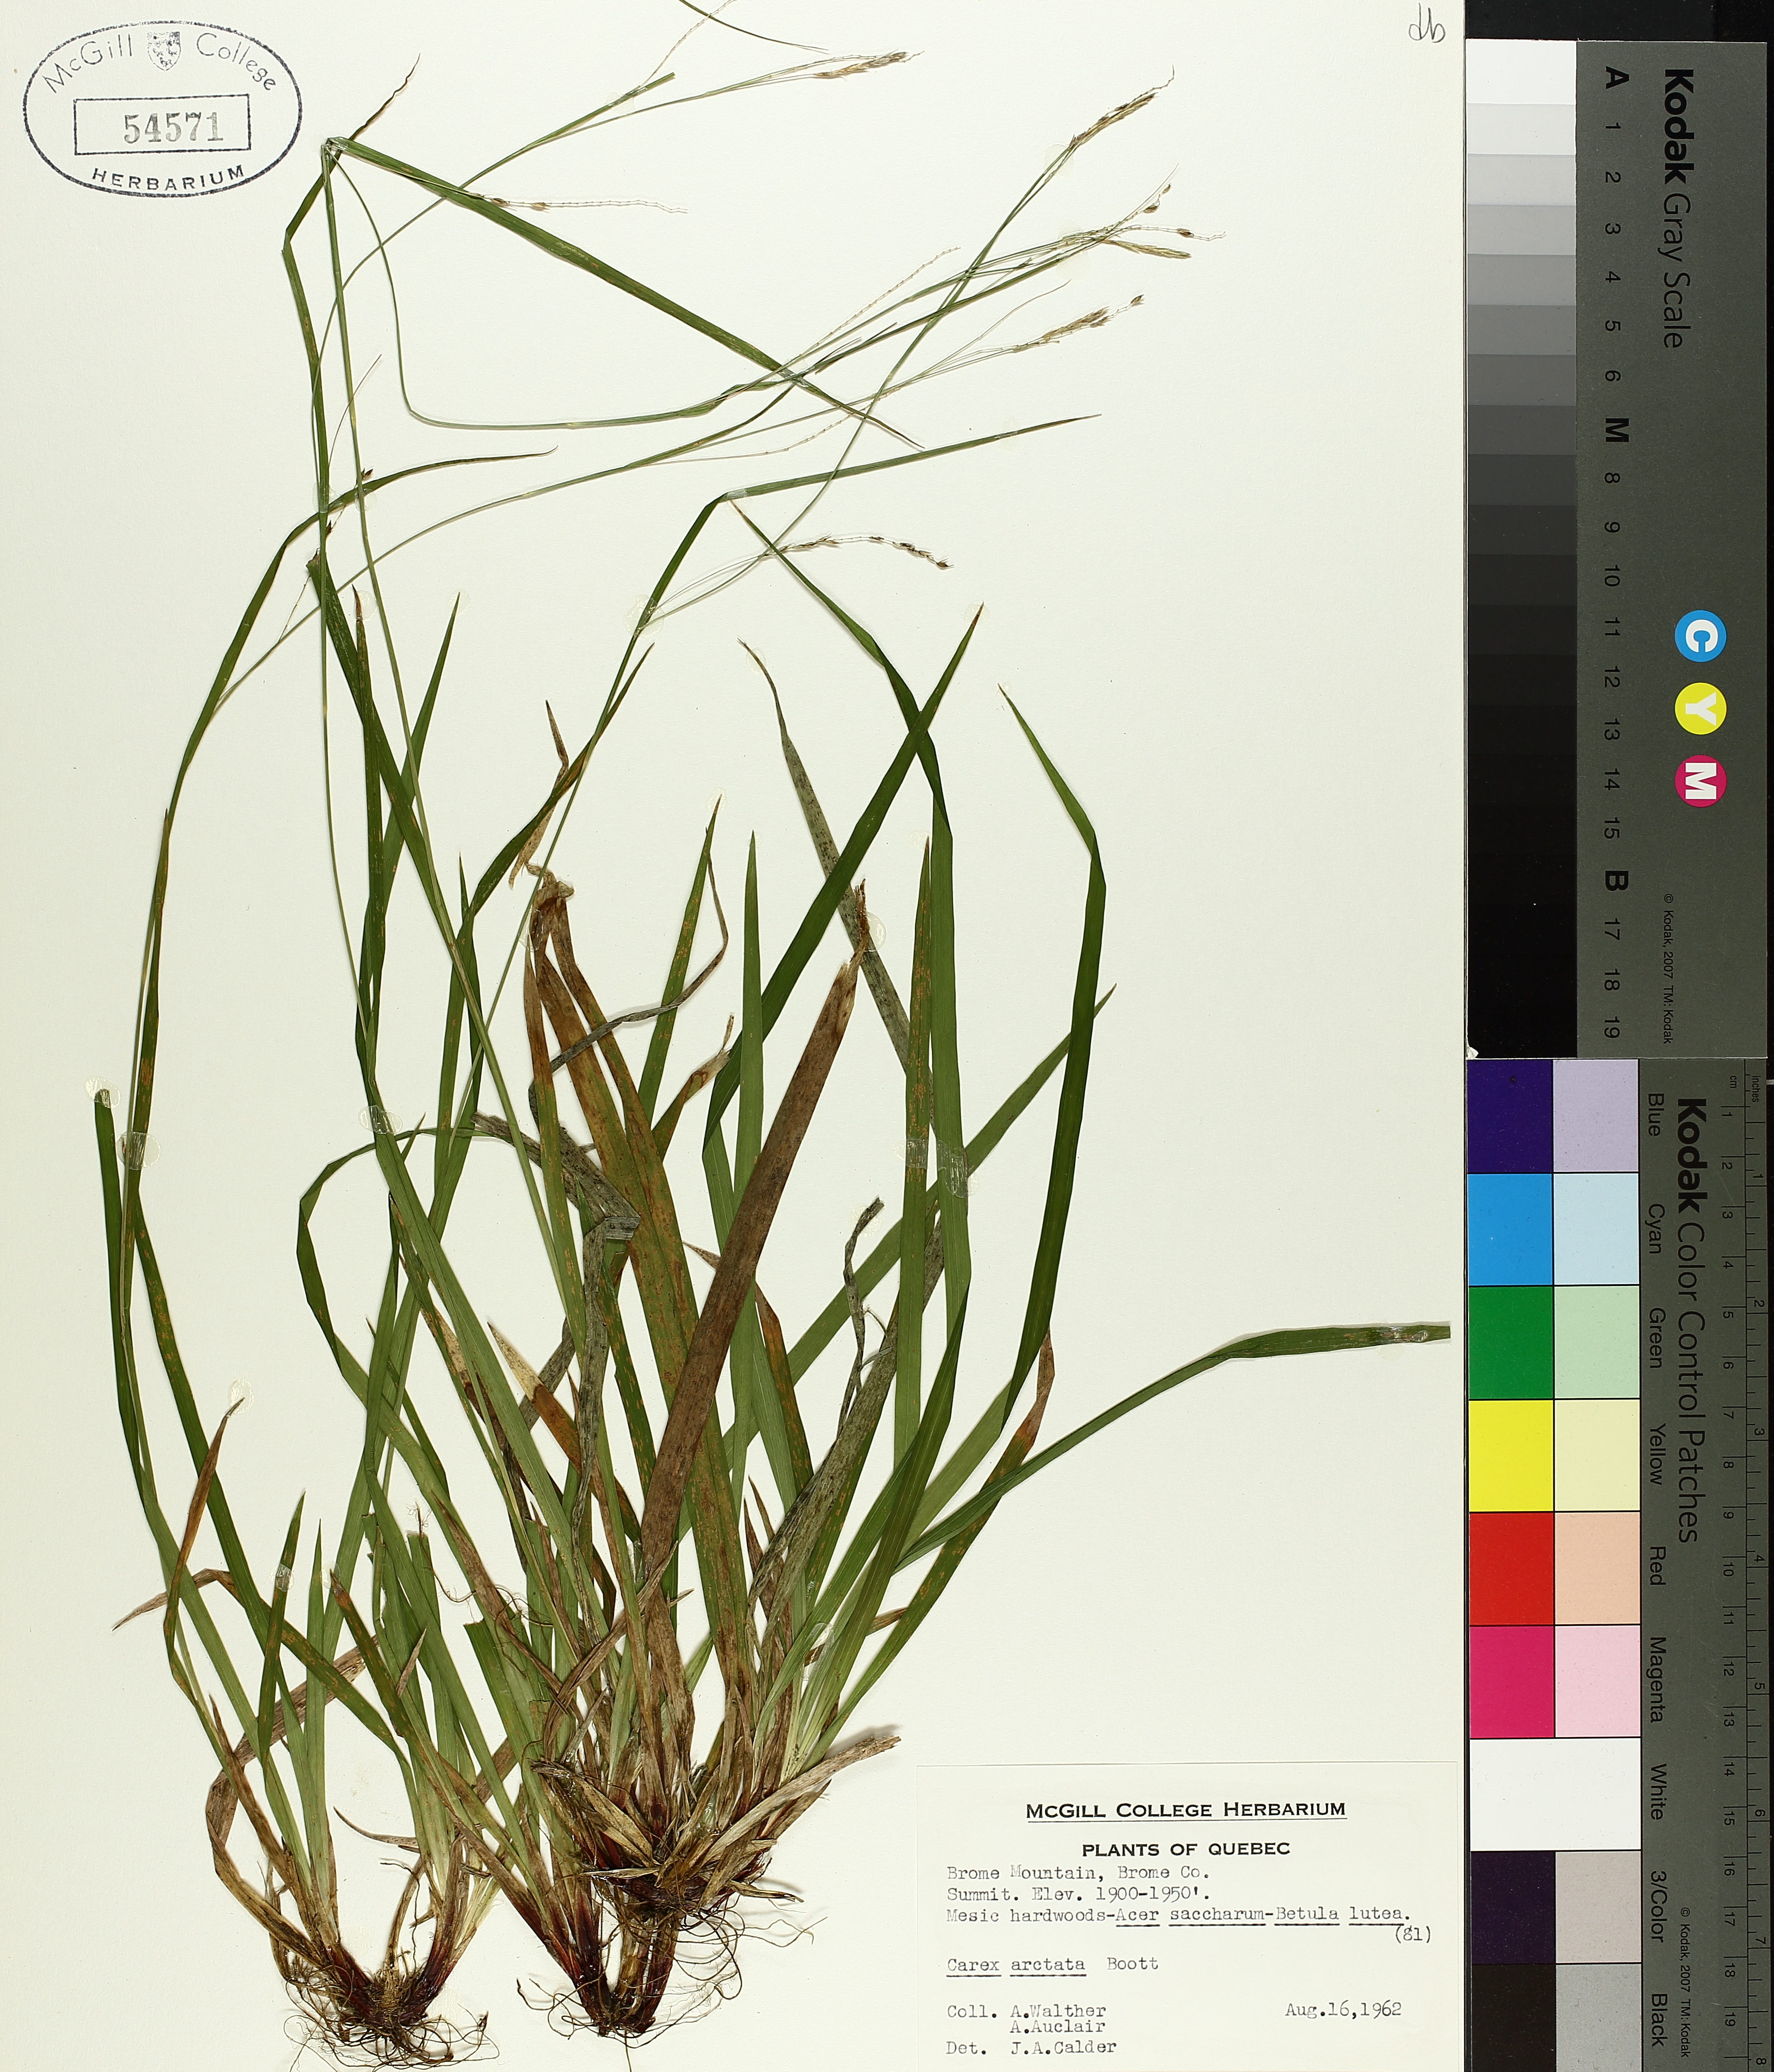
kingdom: Plantae
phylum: Tracheophyta
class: Liliopsida
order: Poales
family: Cyperaceae
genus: Carex
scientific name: Carex arctata
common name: Black sedge
